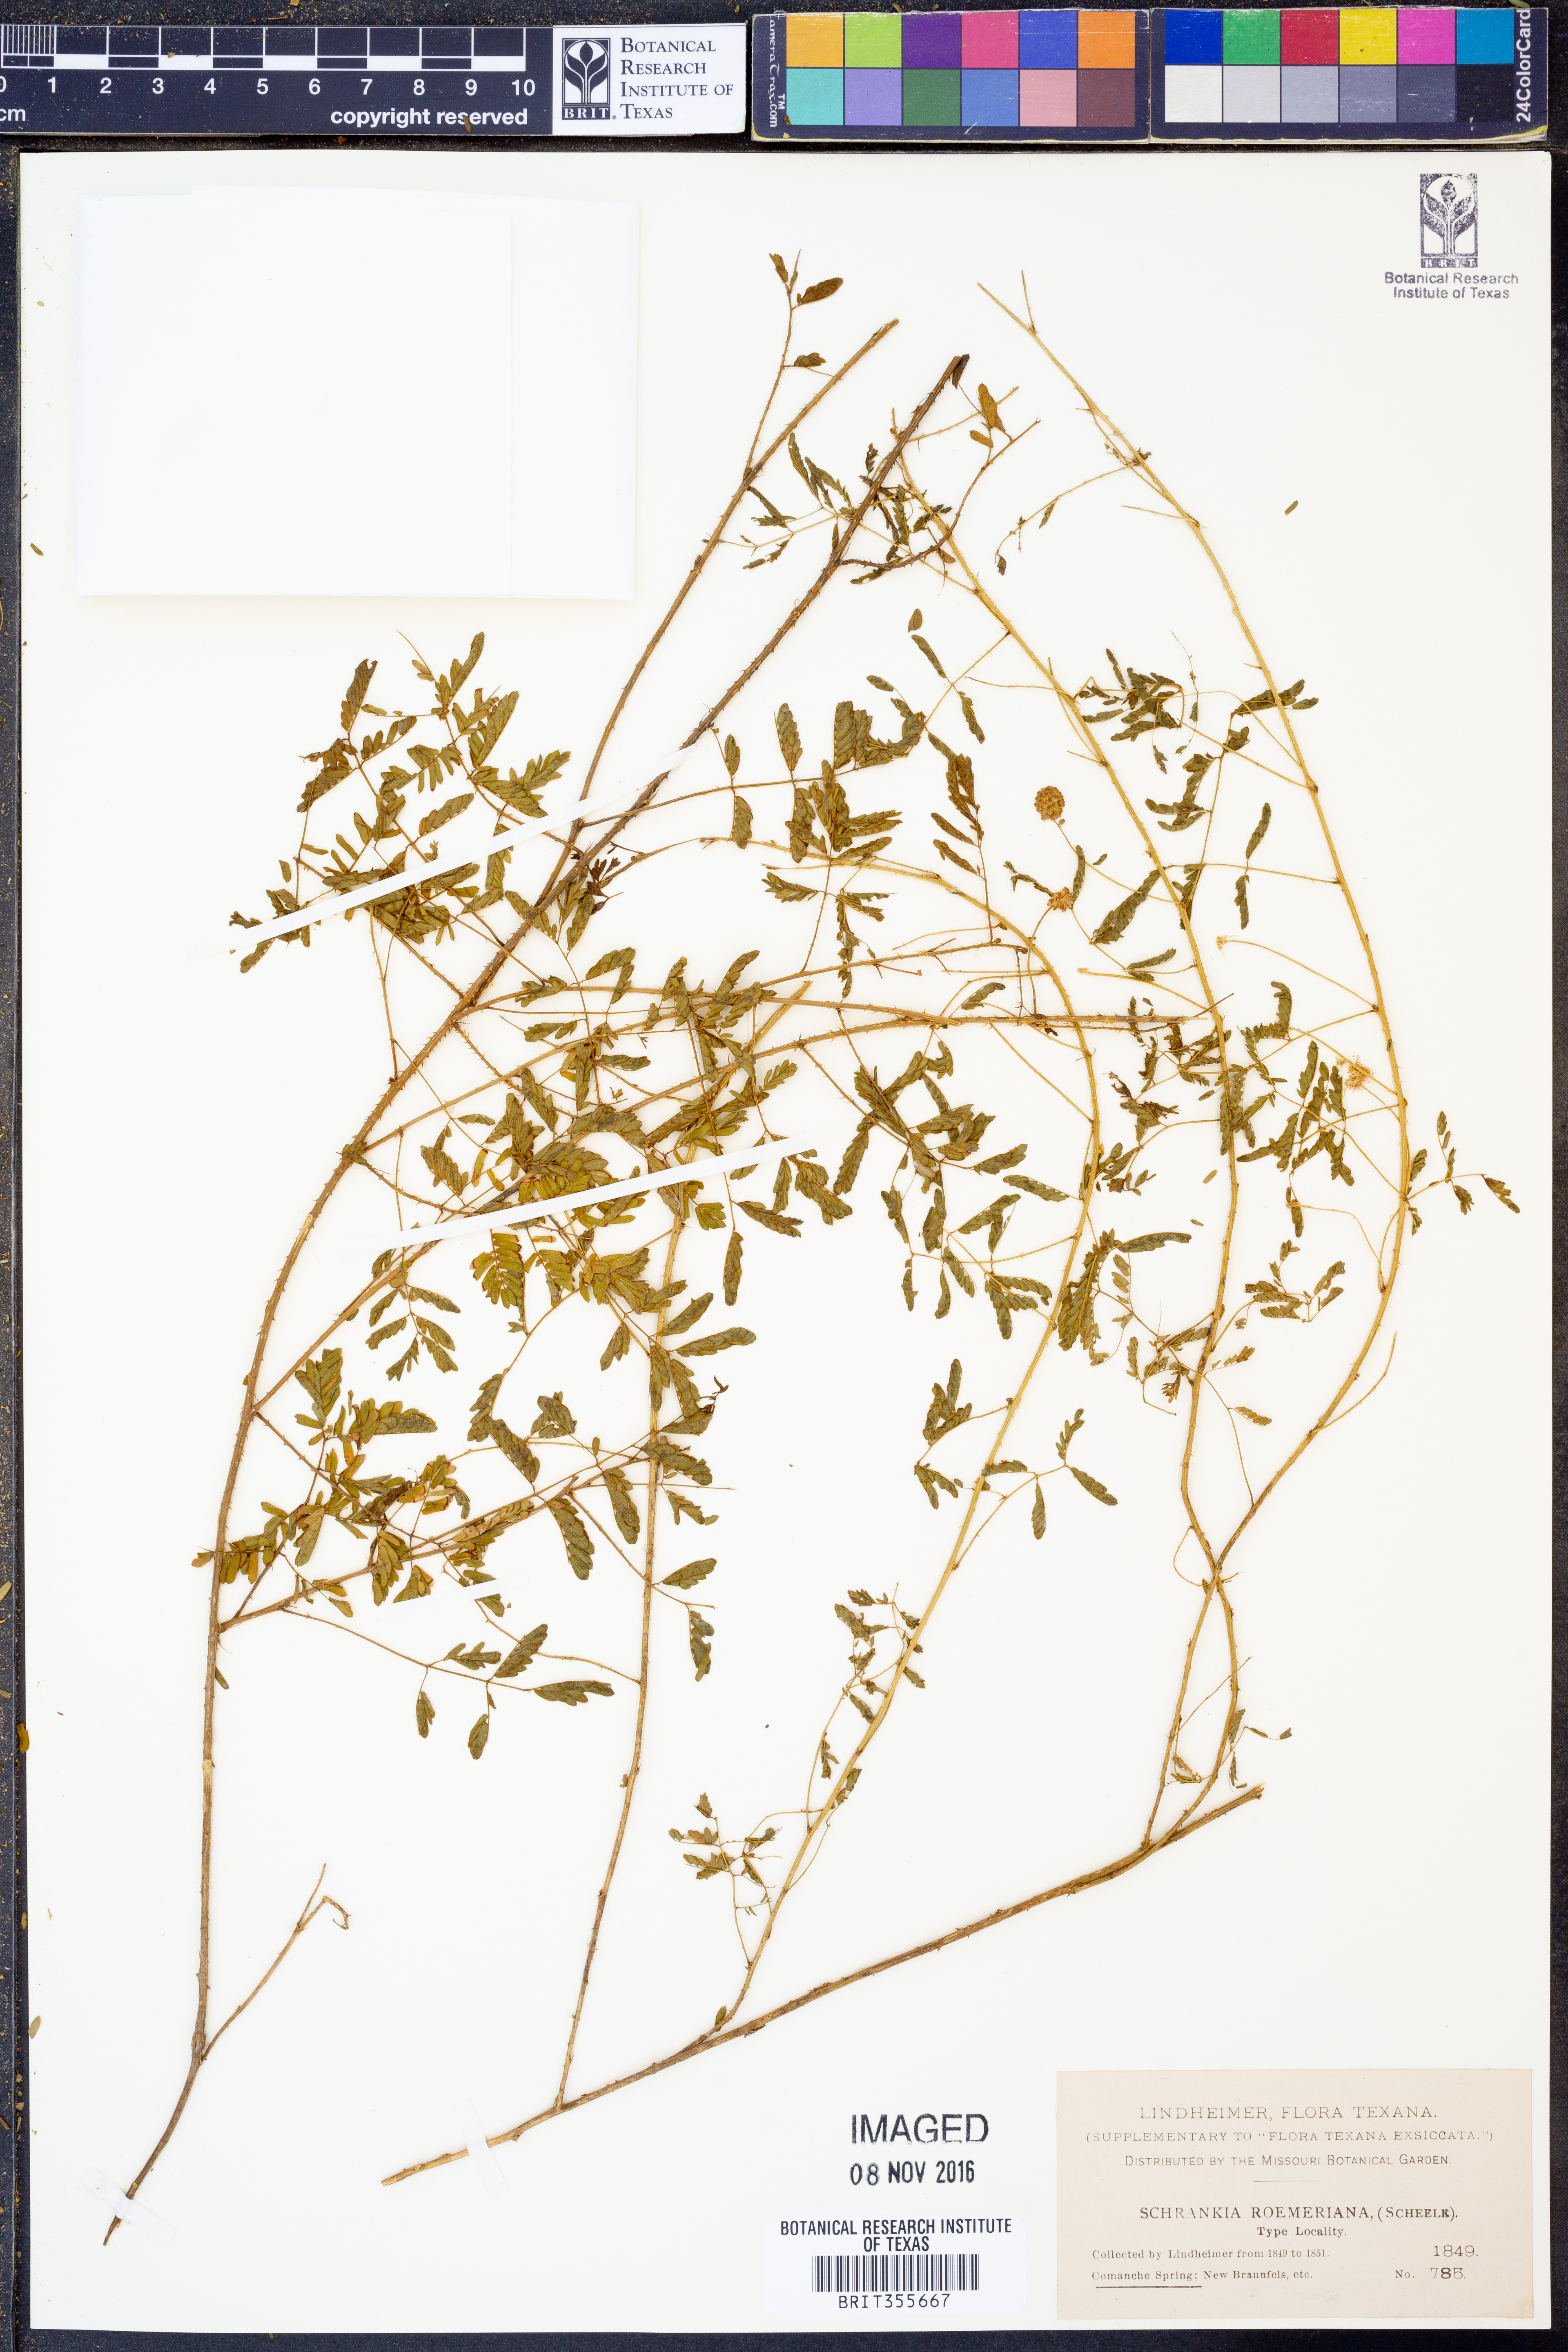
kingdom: Plantae
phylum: Tracheophyta
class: Magnoliopsida
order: Fabales
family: Fabaceae
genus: Mimosa
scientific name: Mimosa quadrivalvis
